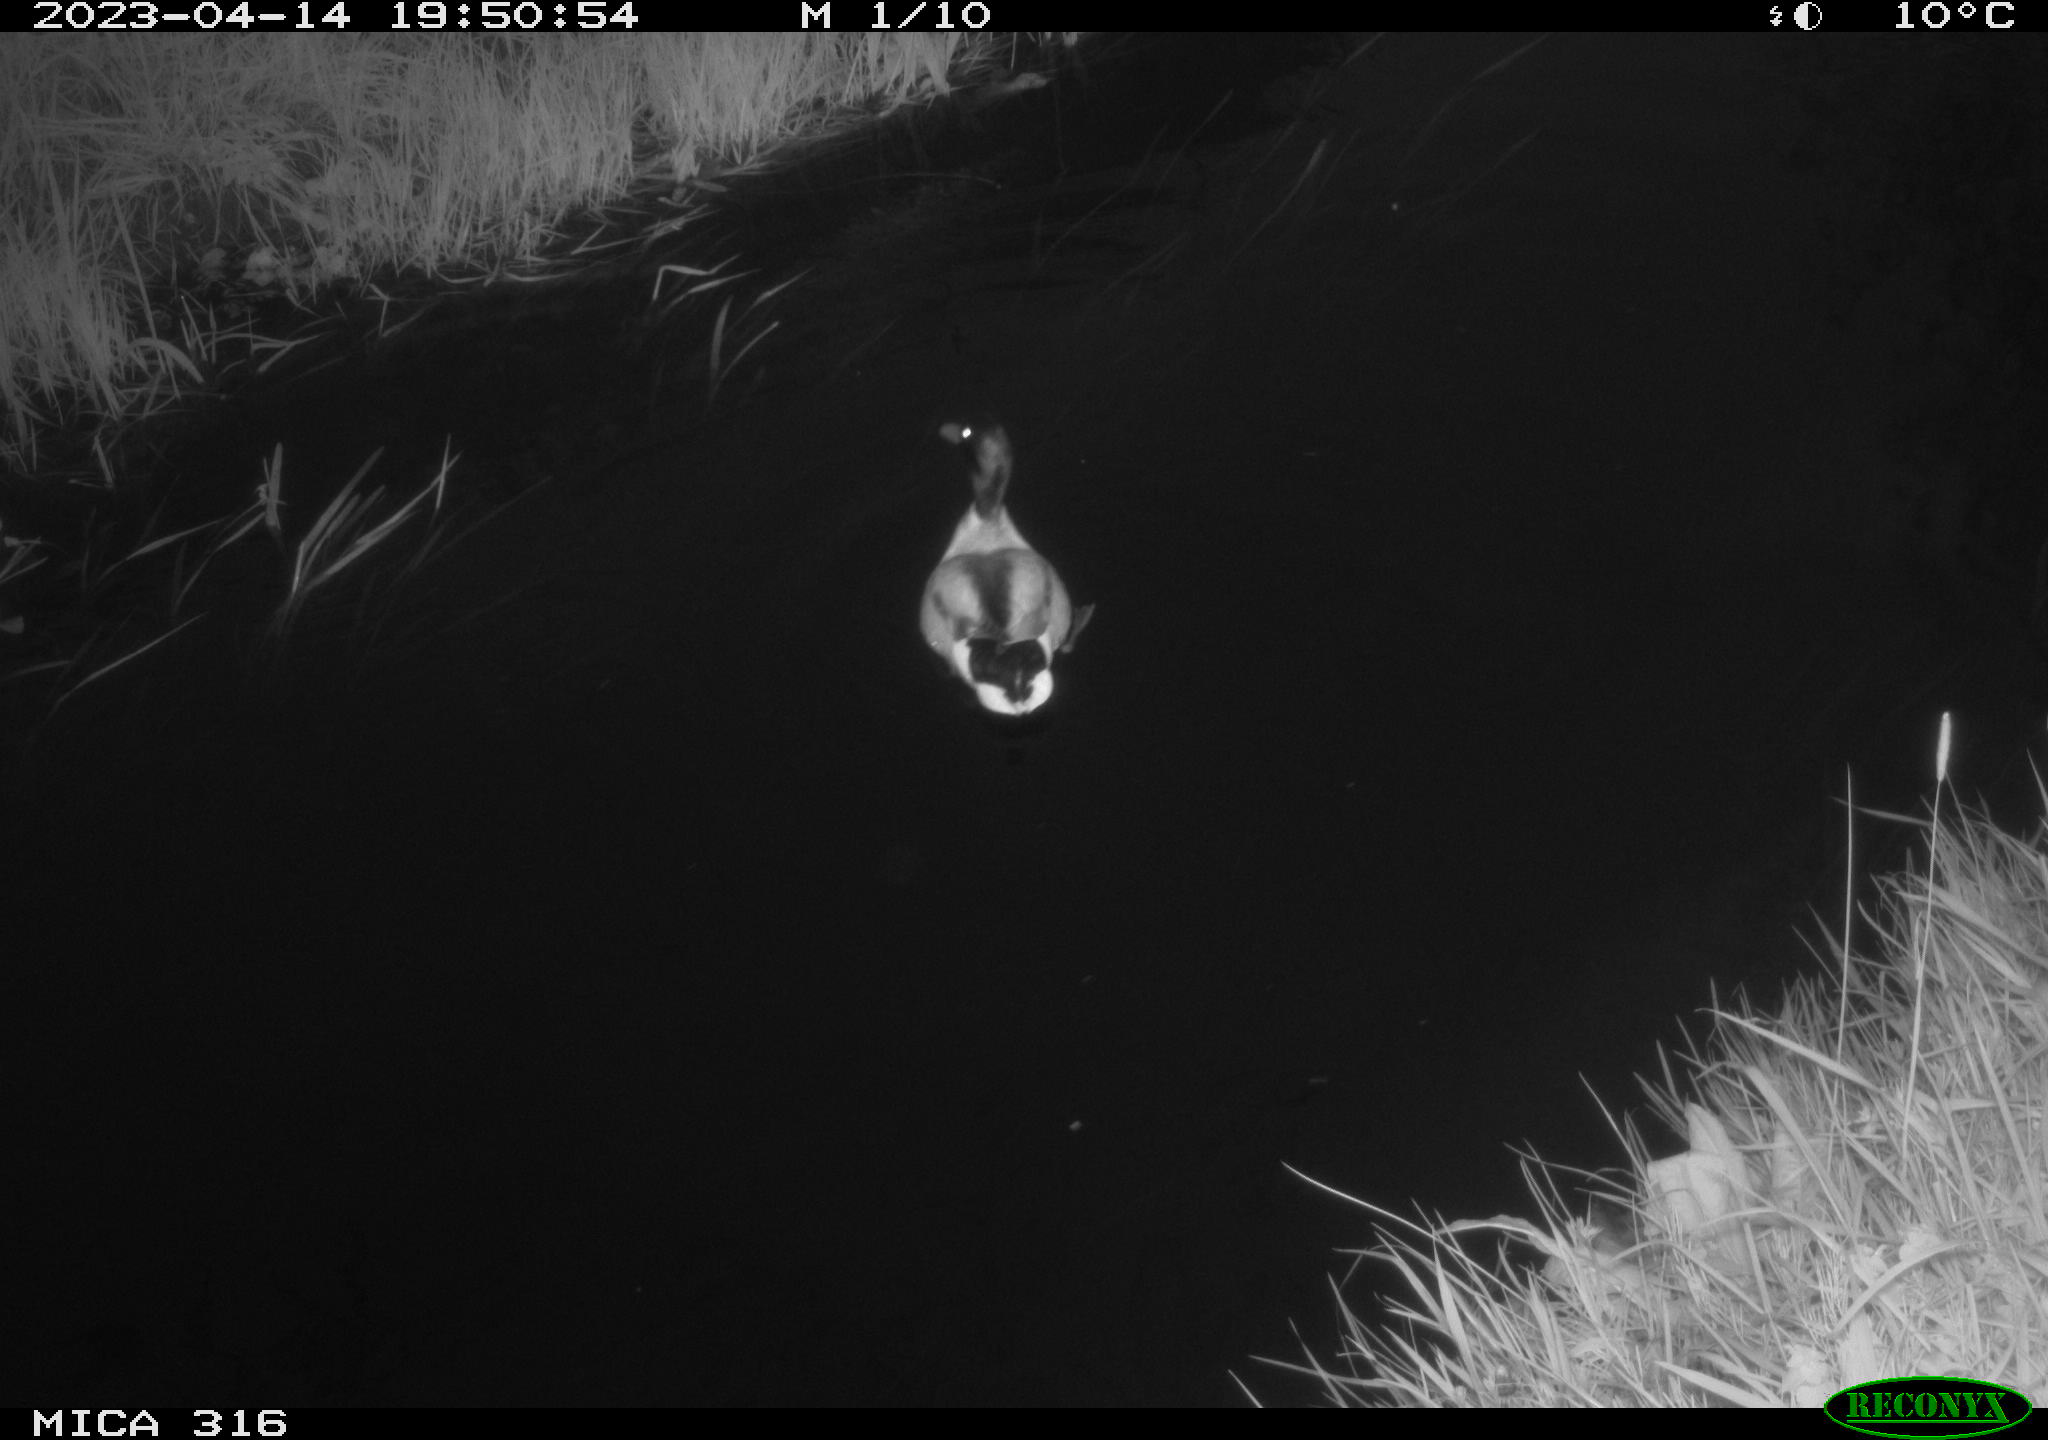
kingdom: Animalia
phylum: Chordata
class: Aves
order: Anseriformes
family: Anatidae
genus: Anas
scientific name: Anas
